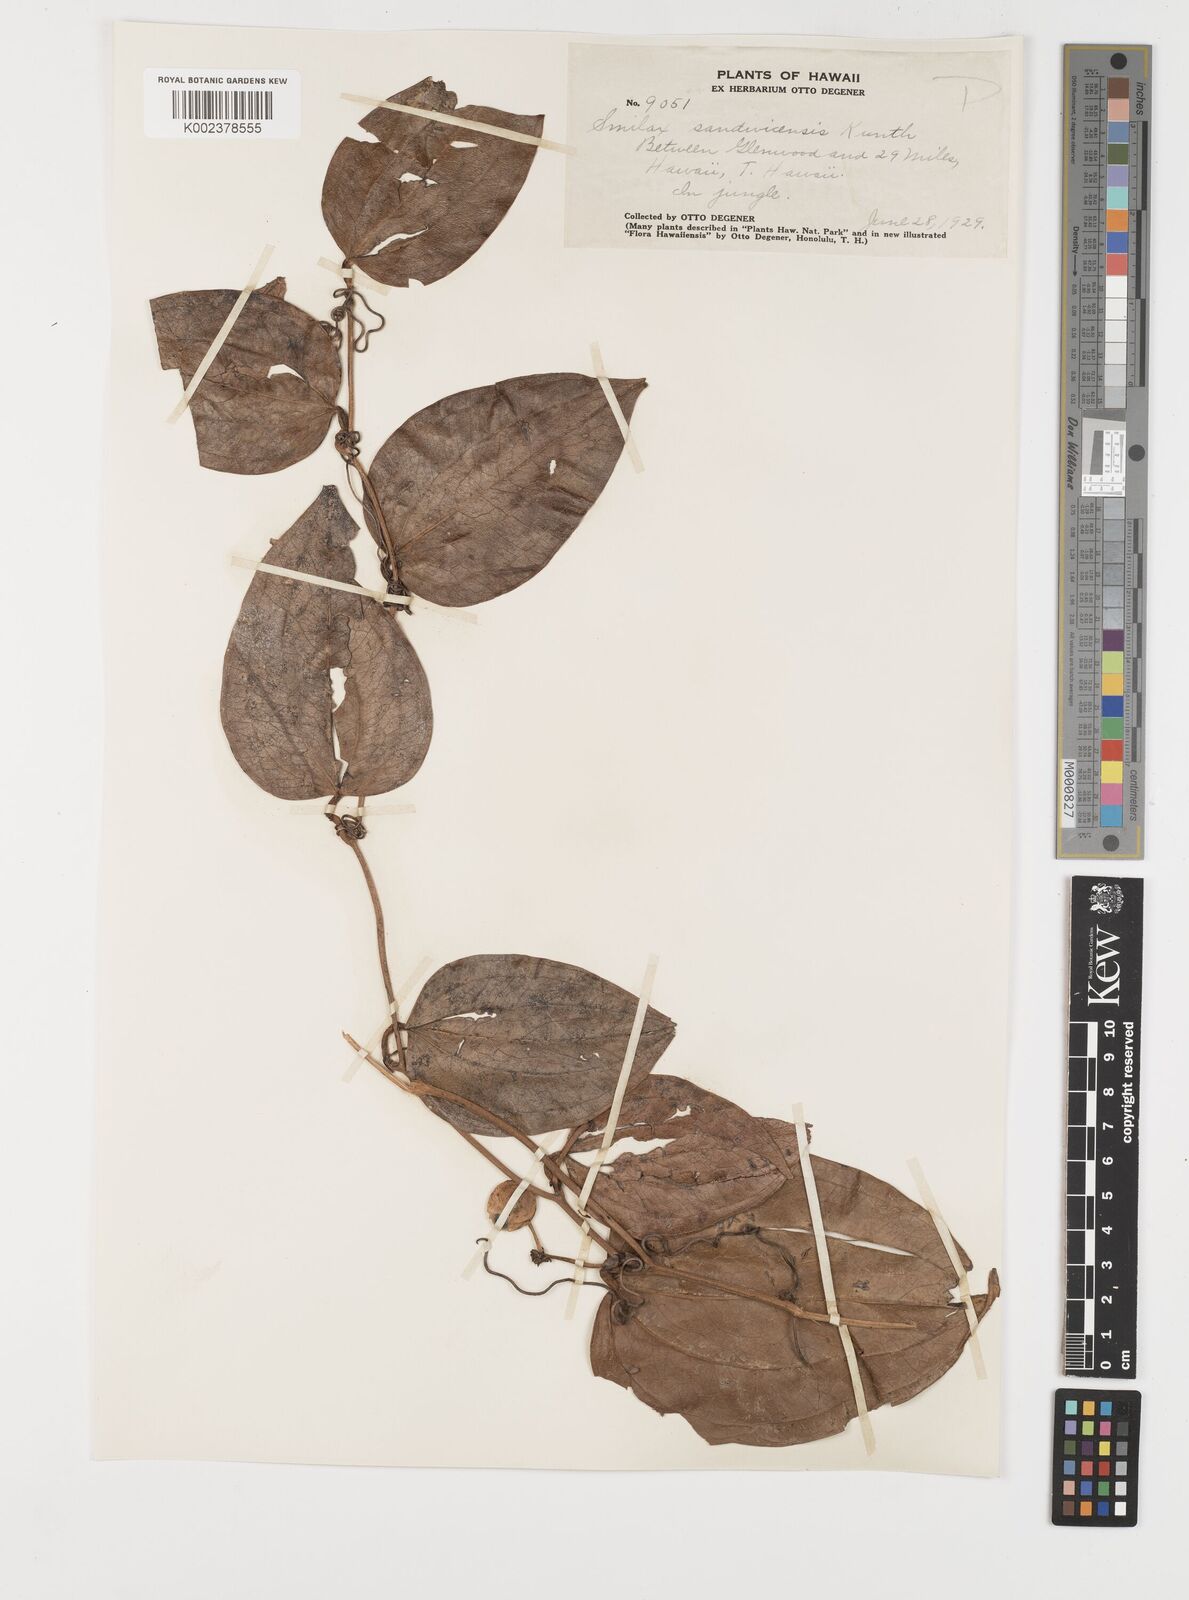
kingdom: Plantae
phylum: Tracheophyta
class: Liliopsida
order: Liliales
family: Smilacaceae
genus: Smilax
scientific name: Smilax melastomifolia
